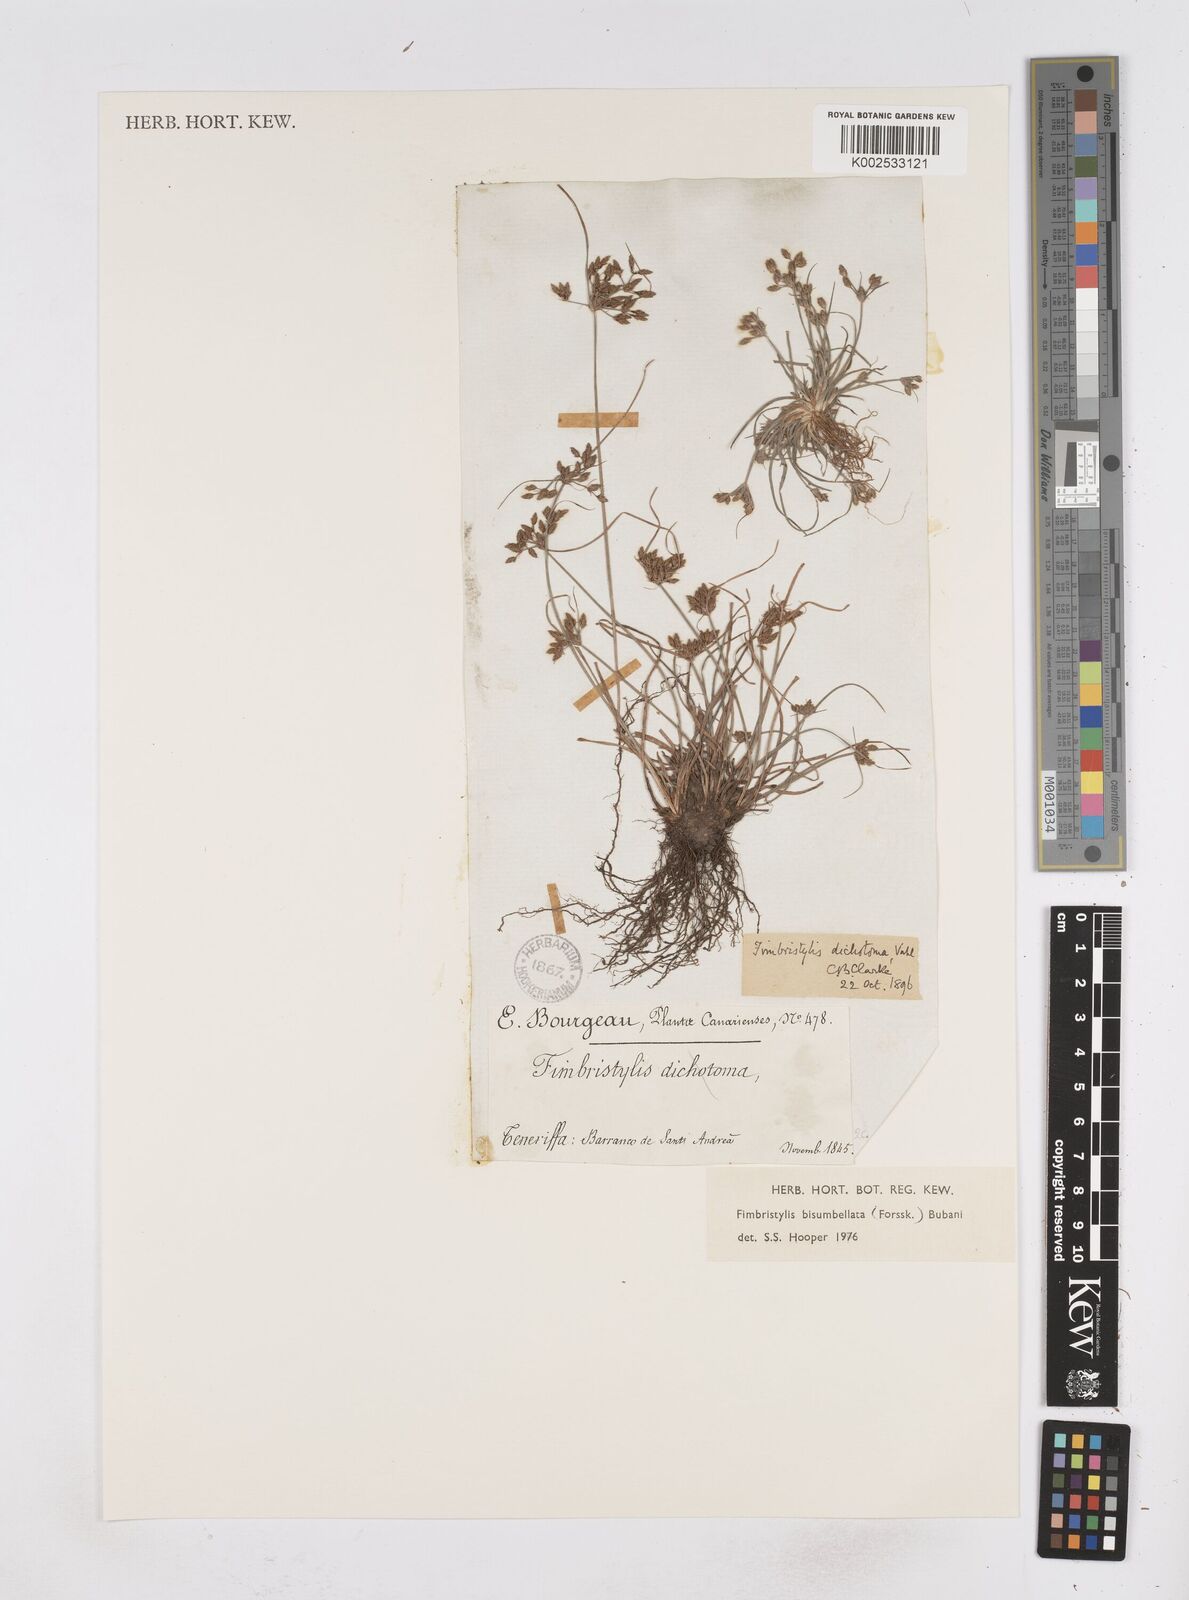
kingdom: Plantae
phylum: Tracheophyta
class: Liliopsida
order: Poales
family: Cyperaceae
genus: Fimbristylis
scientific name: Fimbristylis bisumbellata
